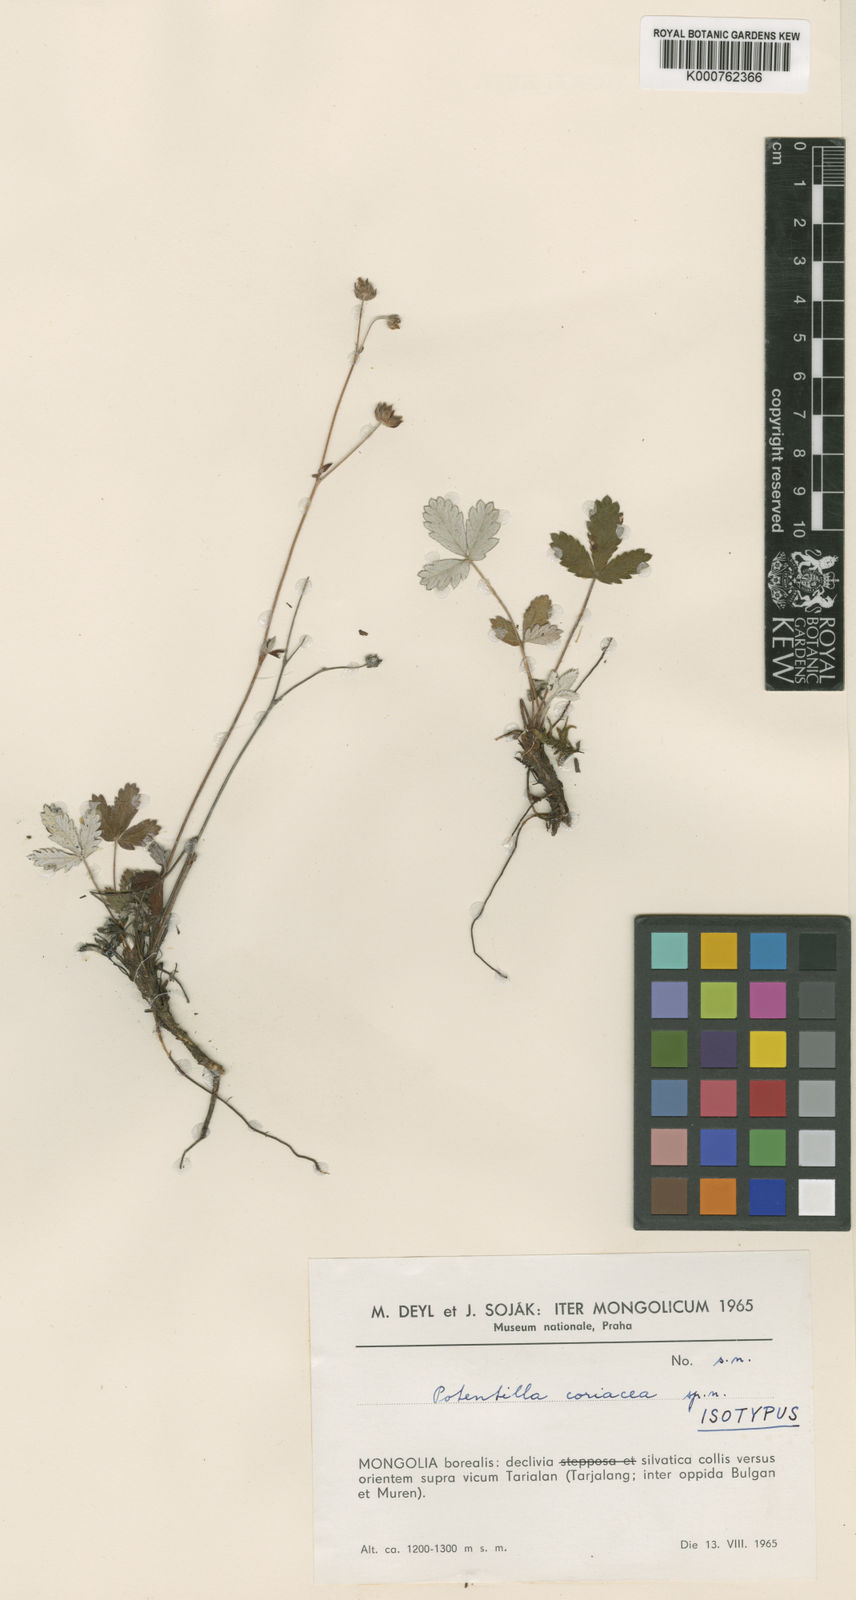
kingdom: Plantae
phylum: Tracheophyta
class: Magnoliopsida
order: Rosales
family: Rosaceae
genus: Potentilla
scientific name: Potentilla
